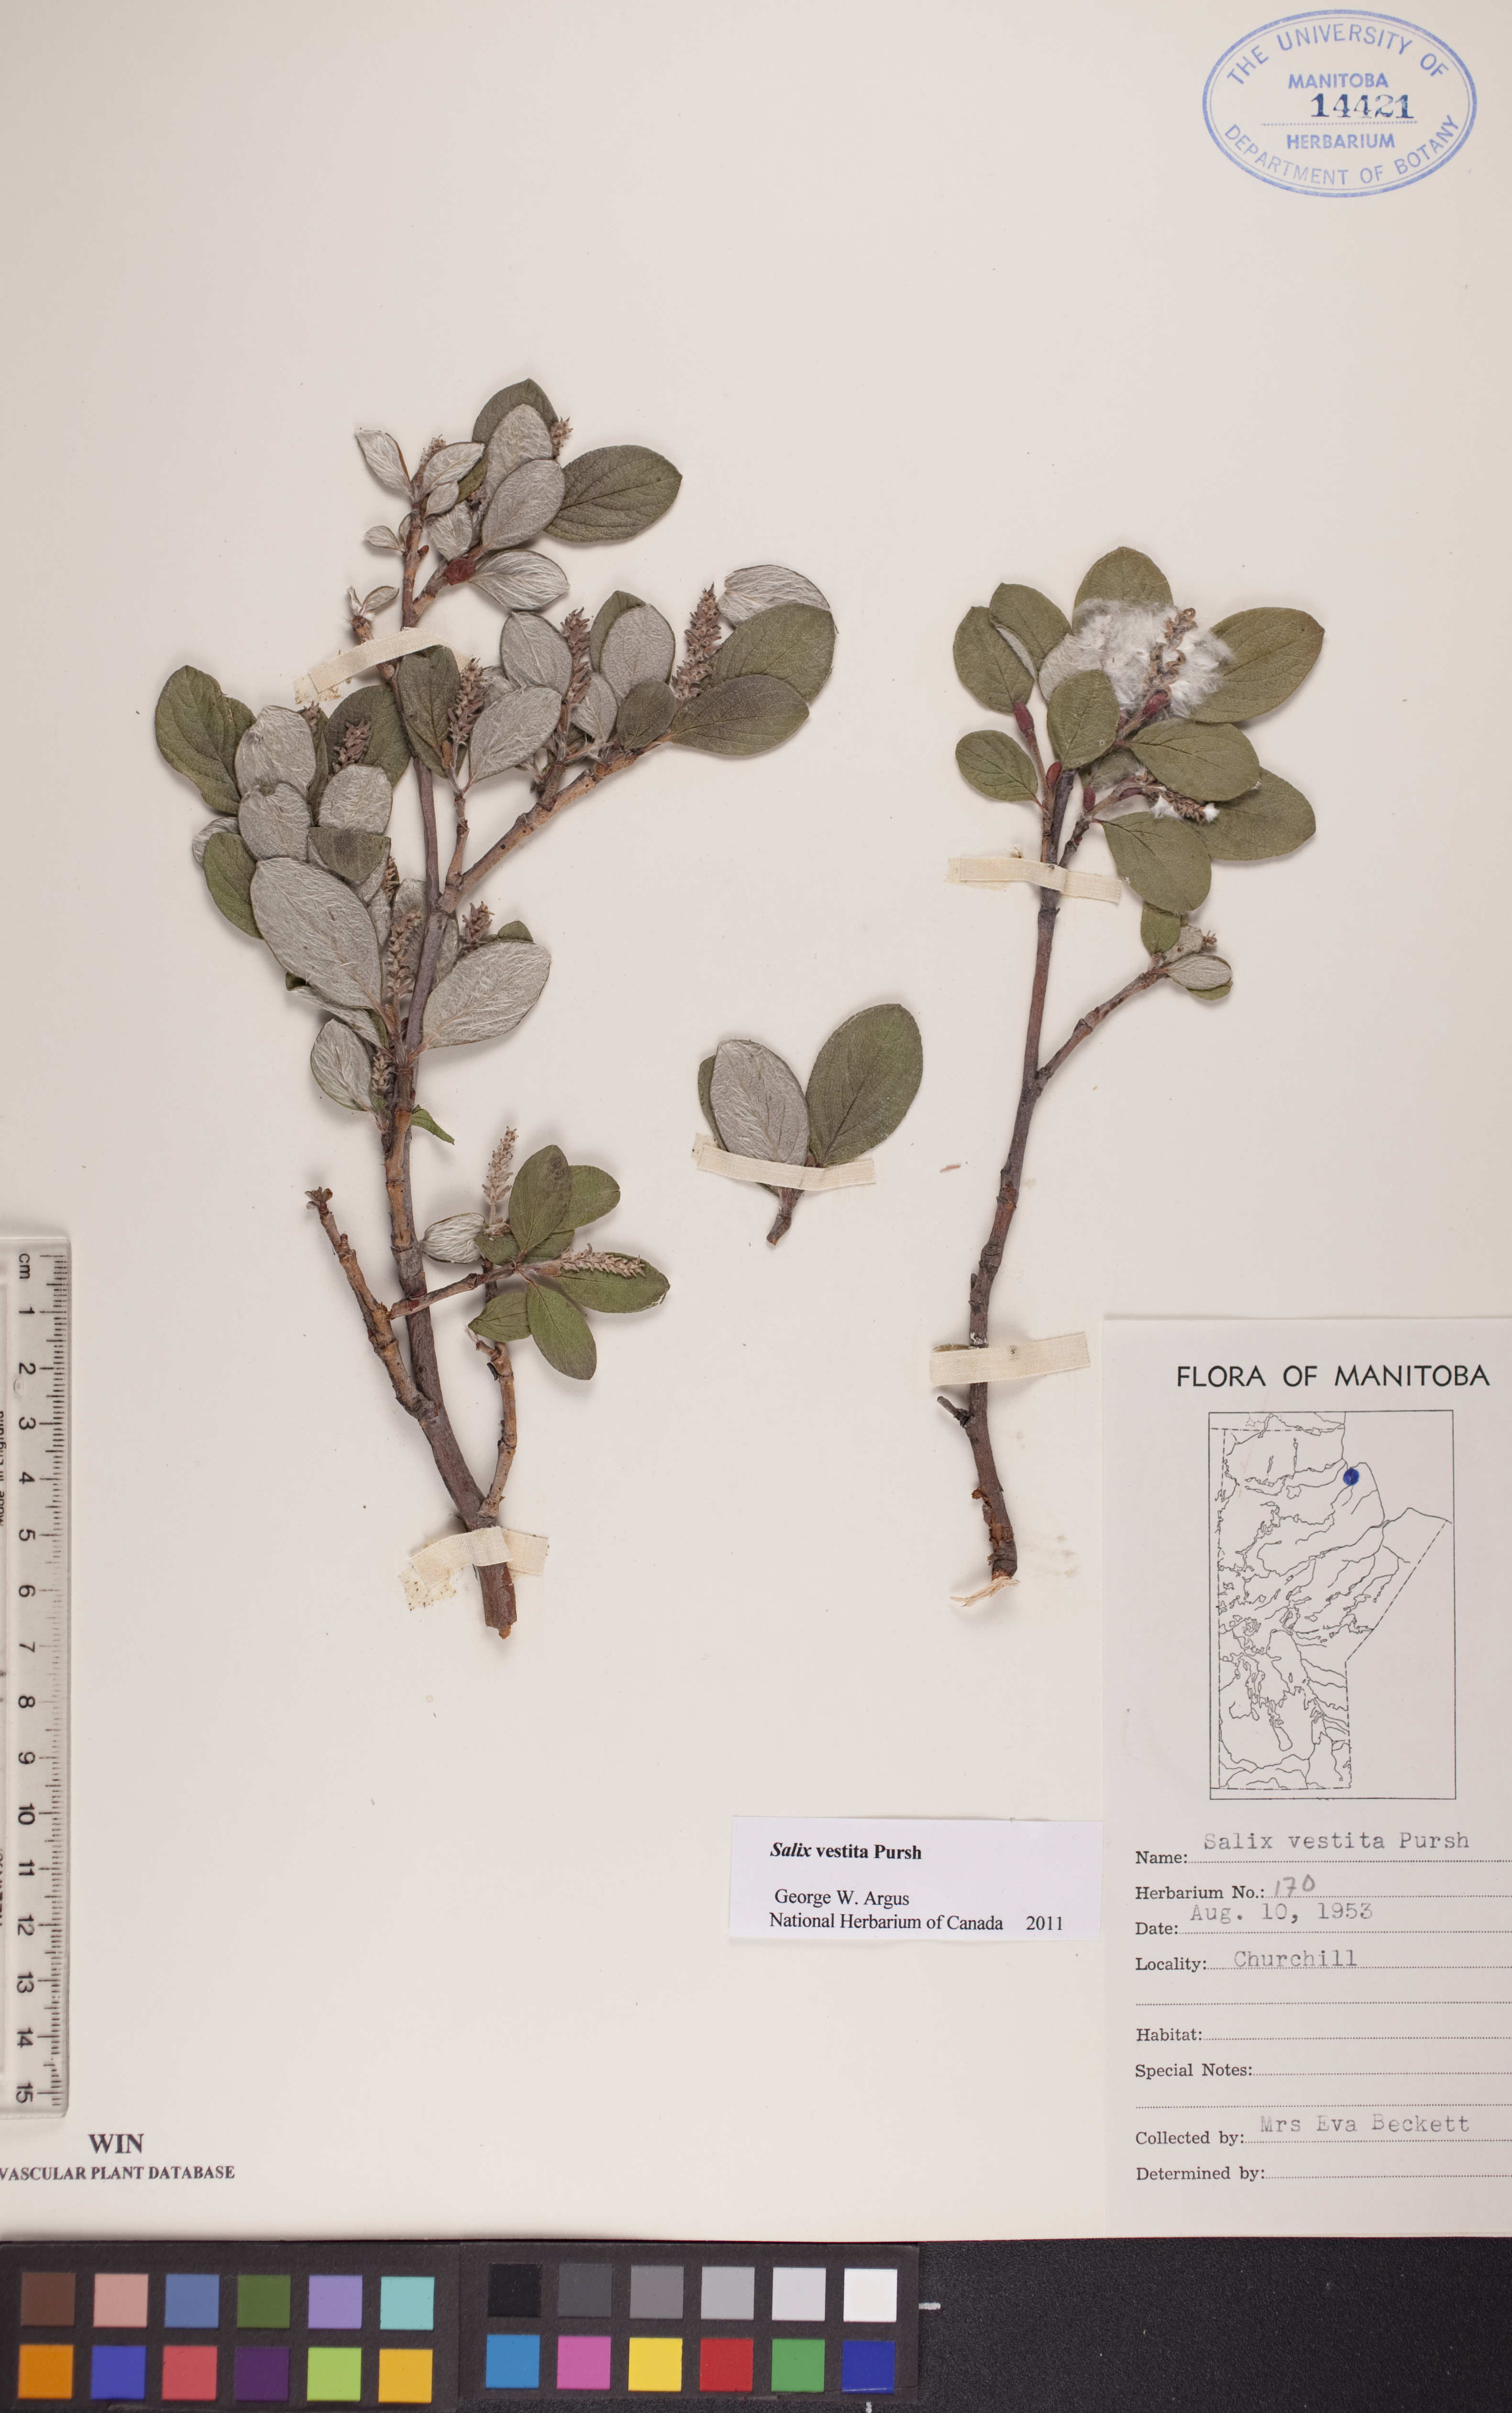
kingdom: Plantae
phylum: Tracheophyta
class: Magnoliopsida
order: Malpighiales
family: Salicaceae
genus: Salix
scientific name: Salix vestita
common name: Hairy willow
